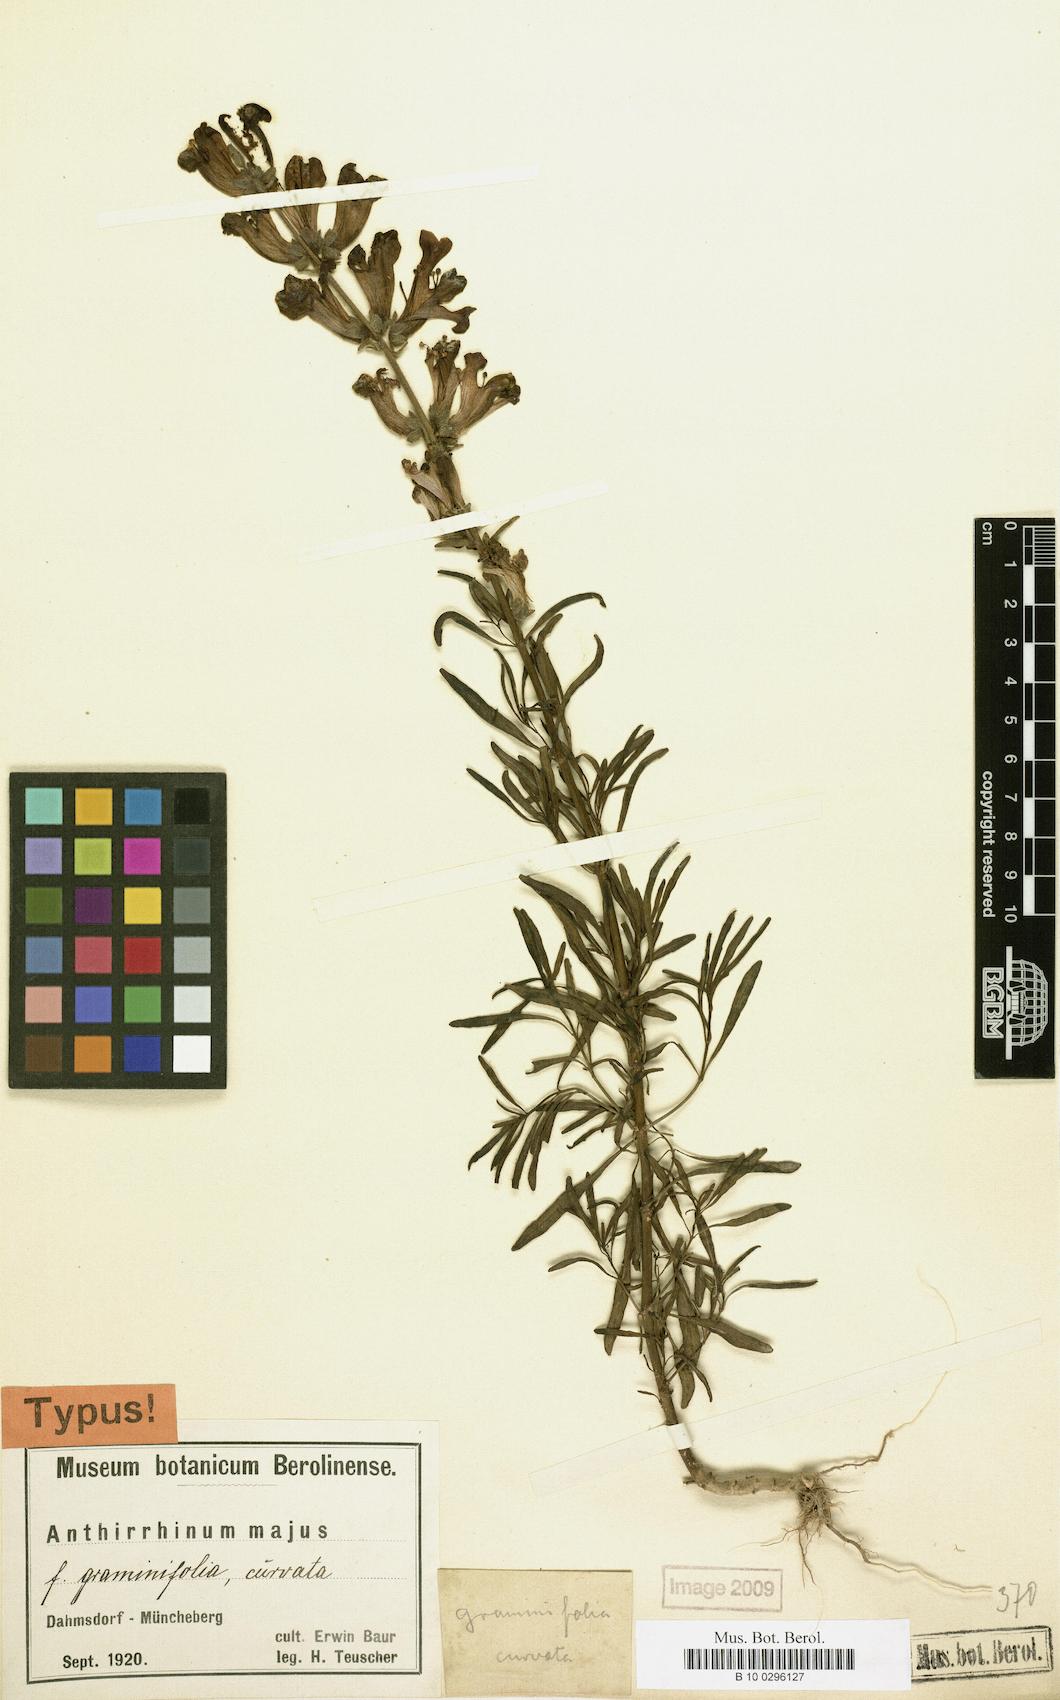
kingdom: Plantae
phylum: Tracheophyta
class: Magnoliopsida
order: Lamiales
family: Plantaginaceae
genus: Antirrhinum
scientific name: Antirrhinum majus
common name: Snapdragon
